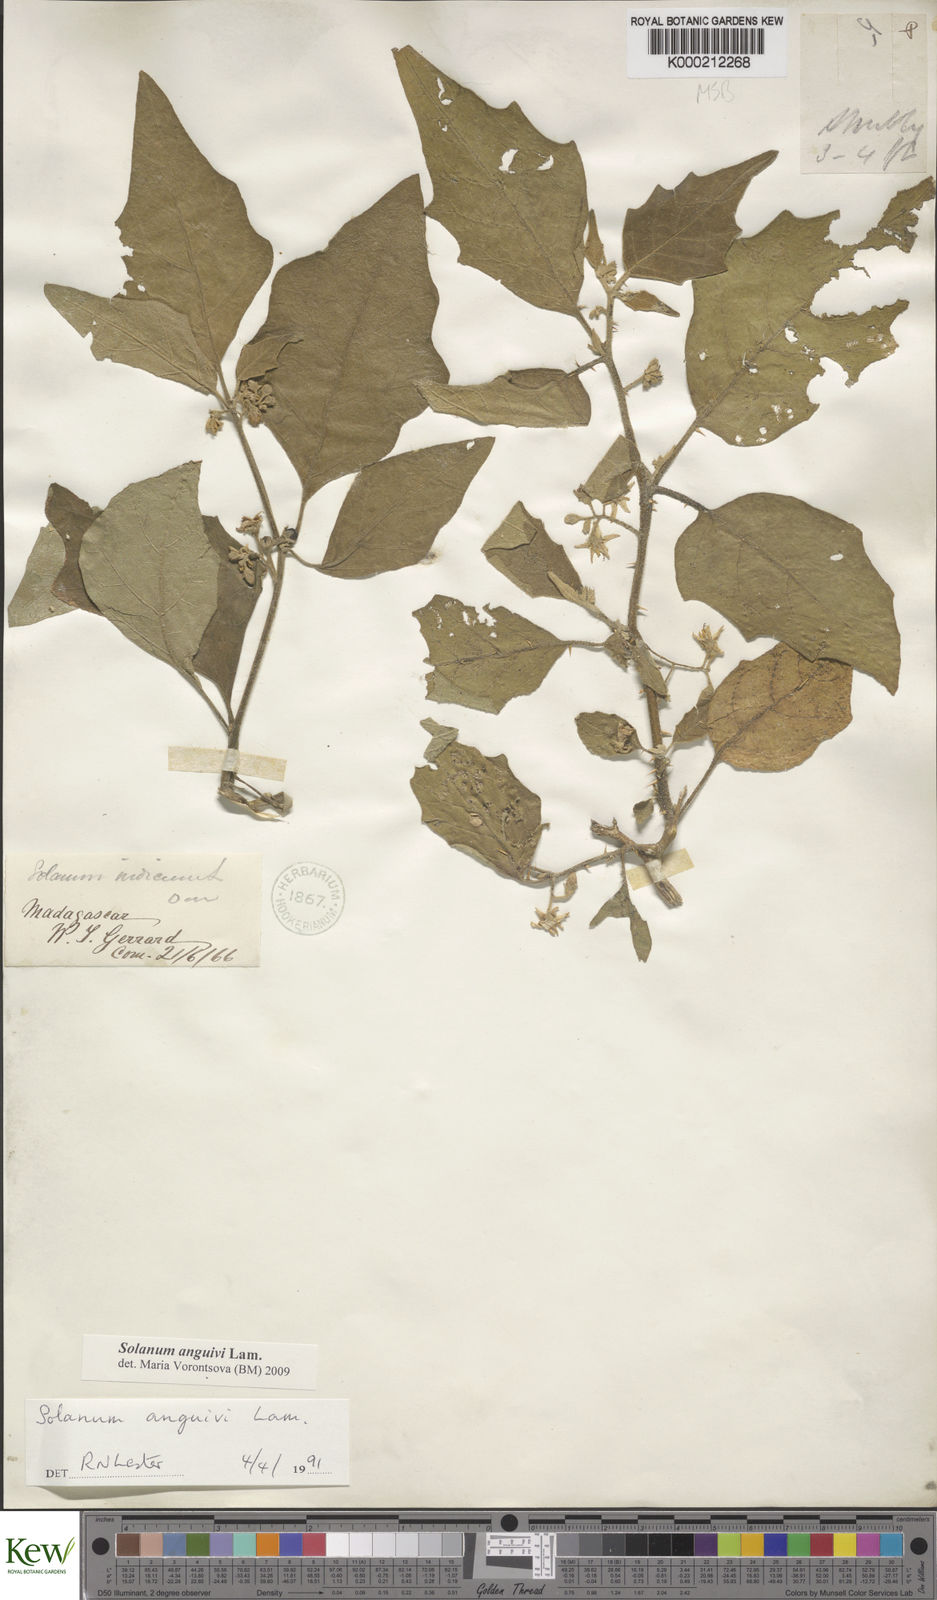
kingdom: Plantae
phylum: Tracheophyta
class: Magnoliopsida
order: Solanales
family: Solanaceae
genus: Solanum
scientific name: Solanum anguivi
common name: Forest bitterberry
